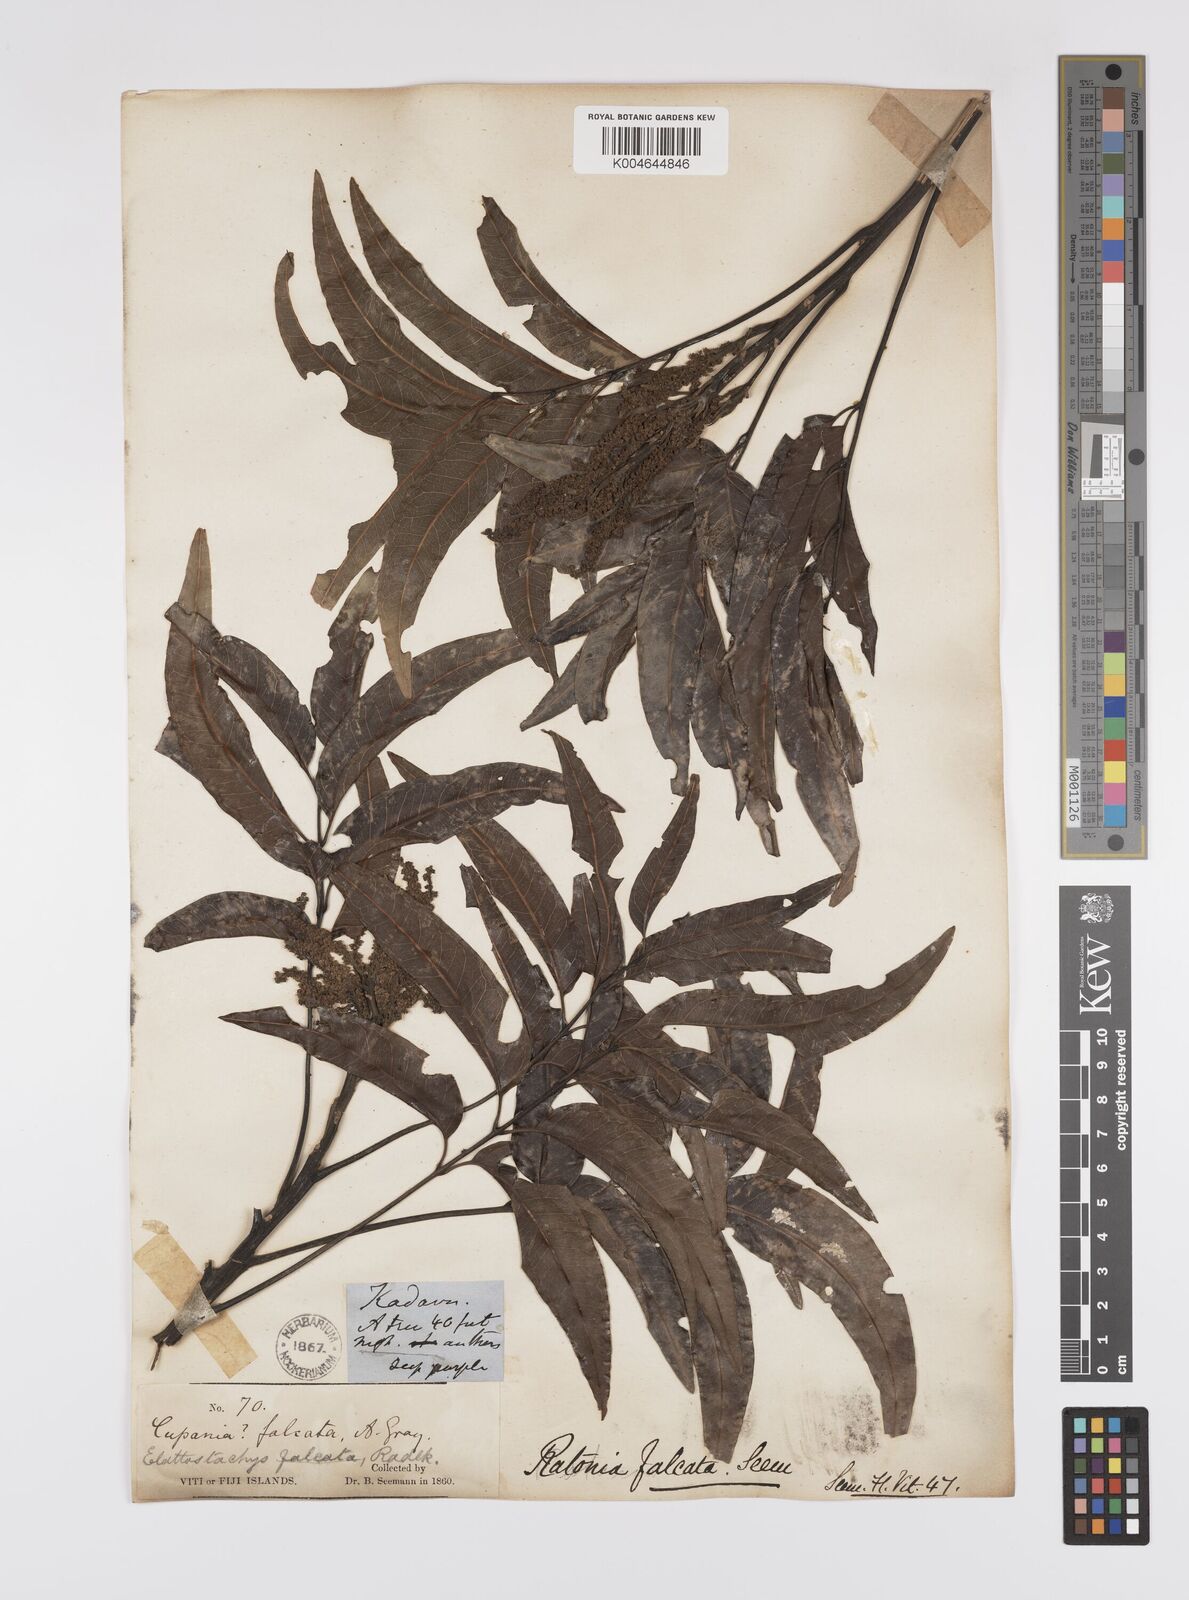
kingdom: Plantae
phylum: Tracheophyta
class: Magnoliopsida
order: Sapindales
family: Sapindaceae
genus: Elattostachys
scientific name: Elattostachys apetala
